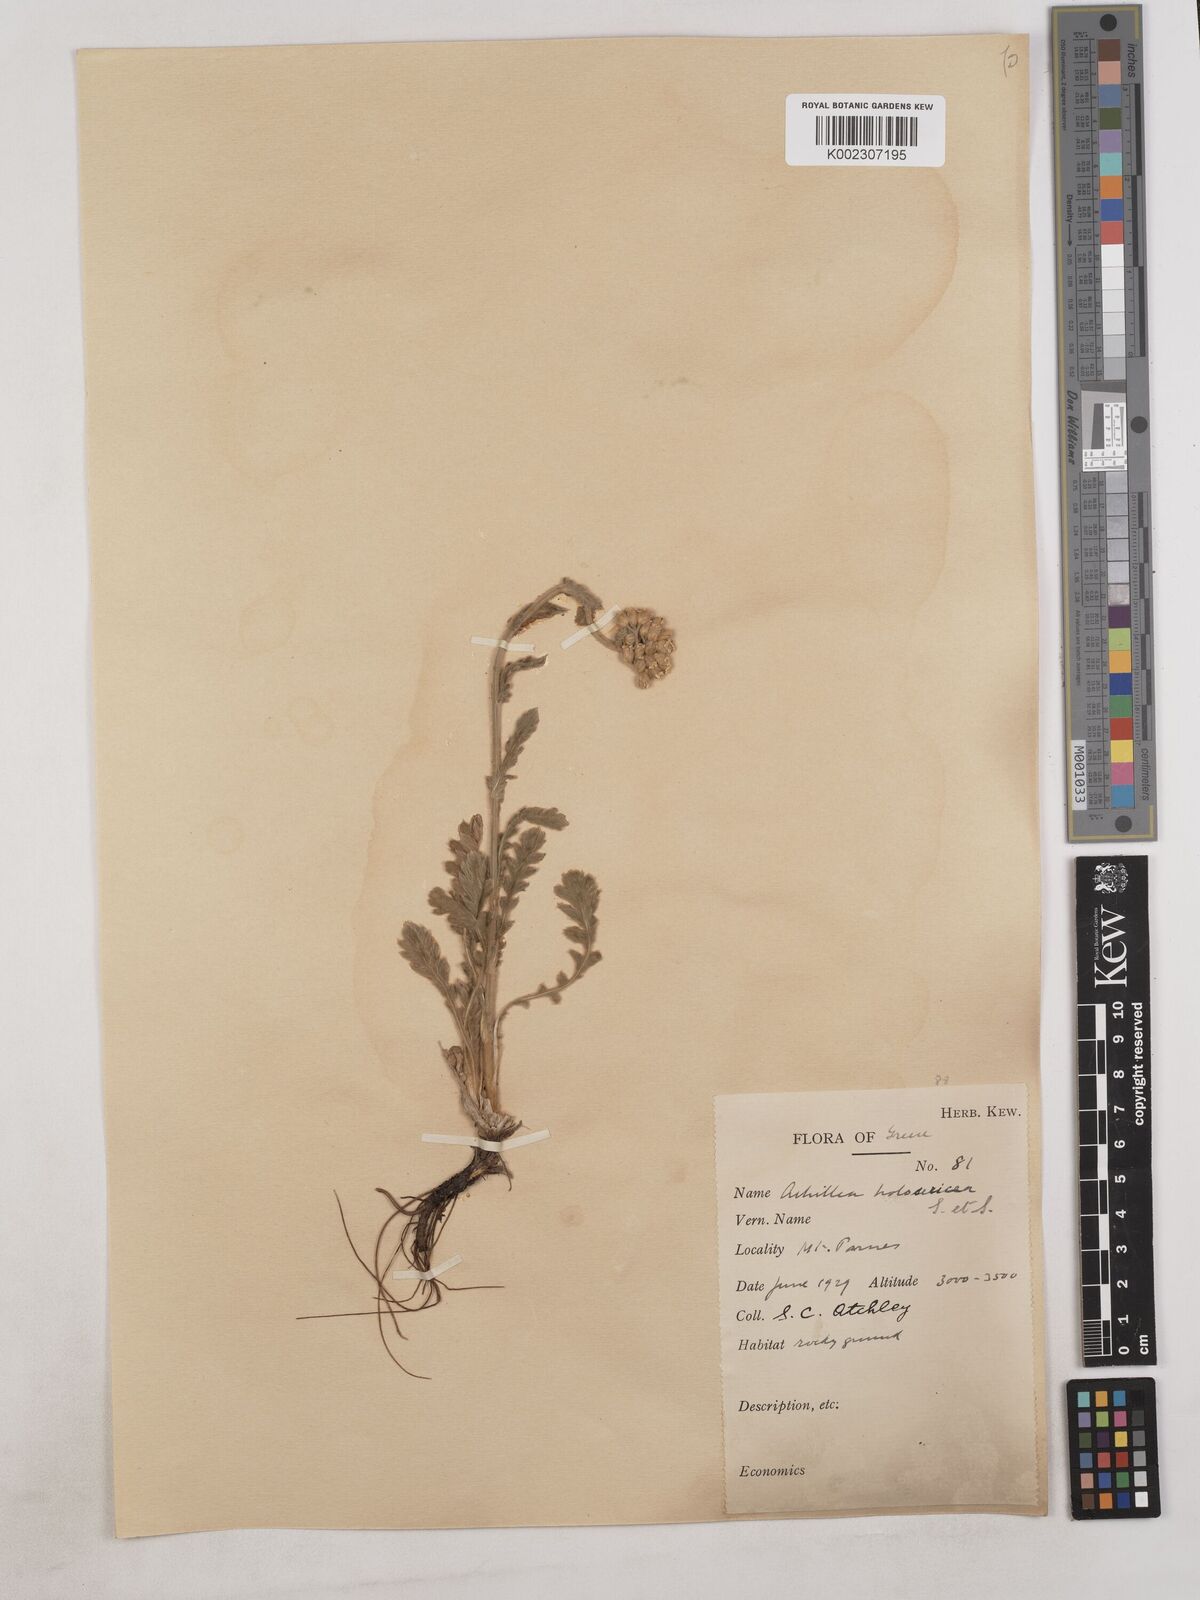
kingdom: Plantae
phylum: Tracheophyta
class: Magnoliopsida
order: Asterales
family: Asteraceae
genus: Achillea
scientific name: Achillea holosericea
